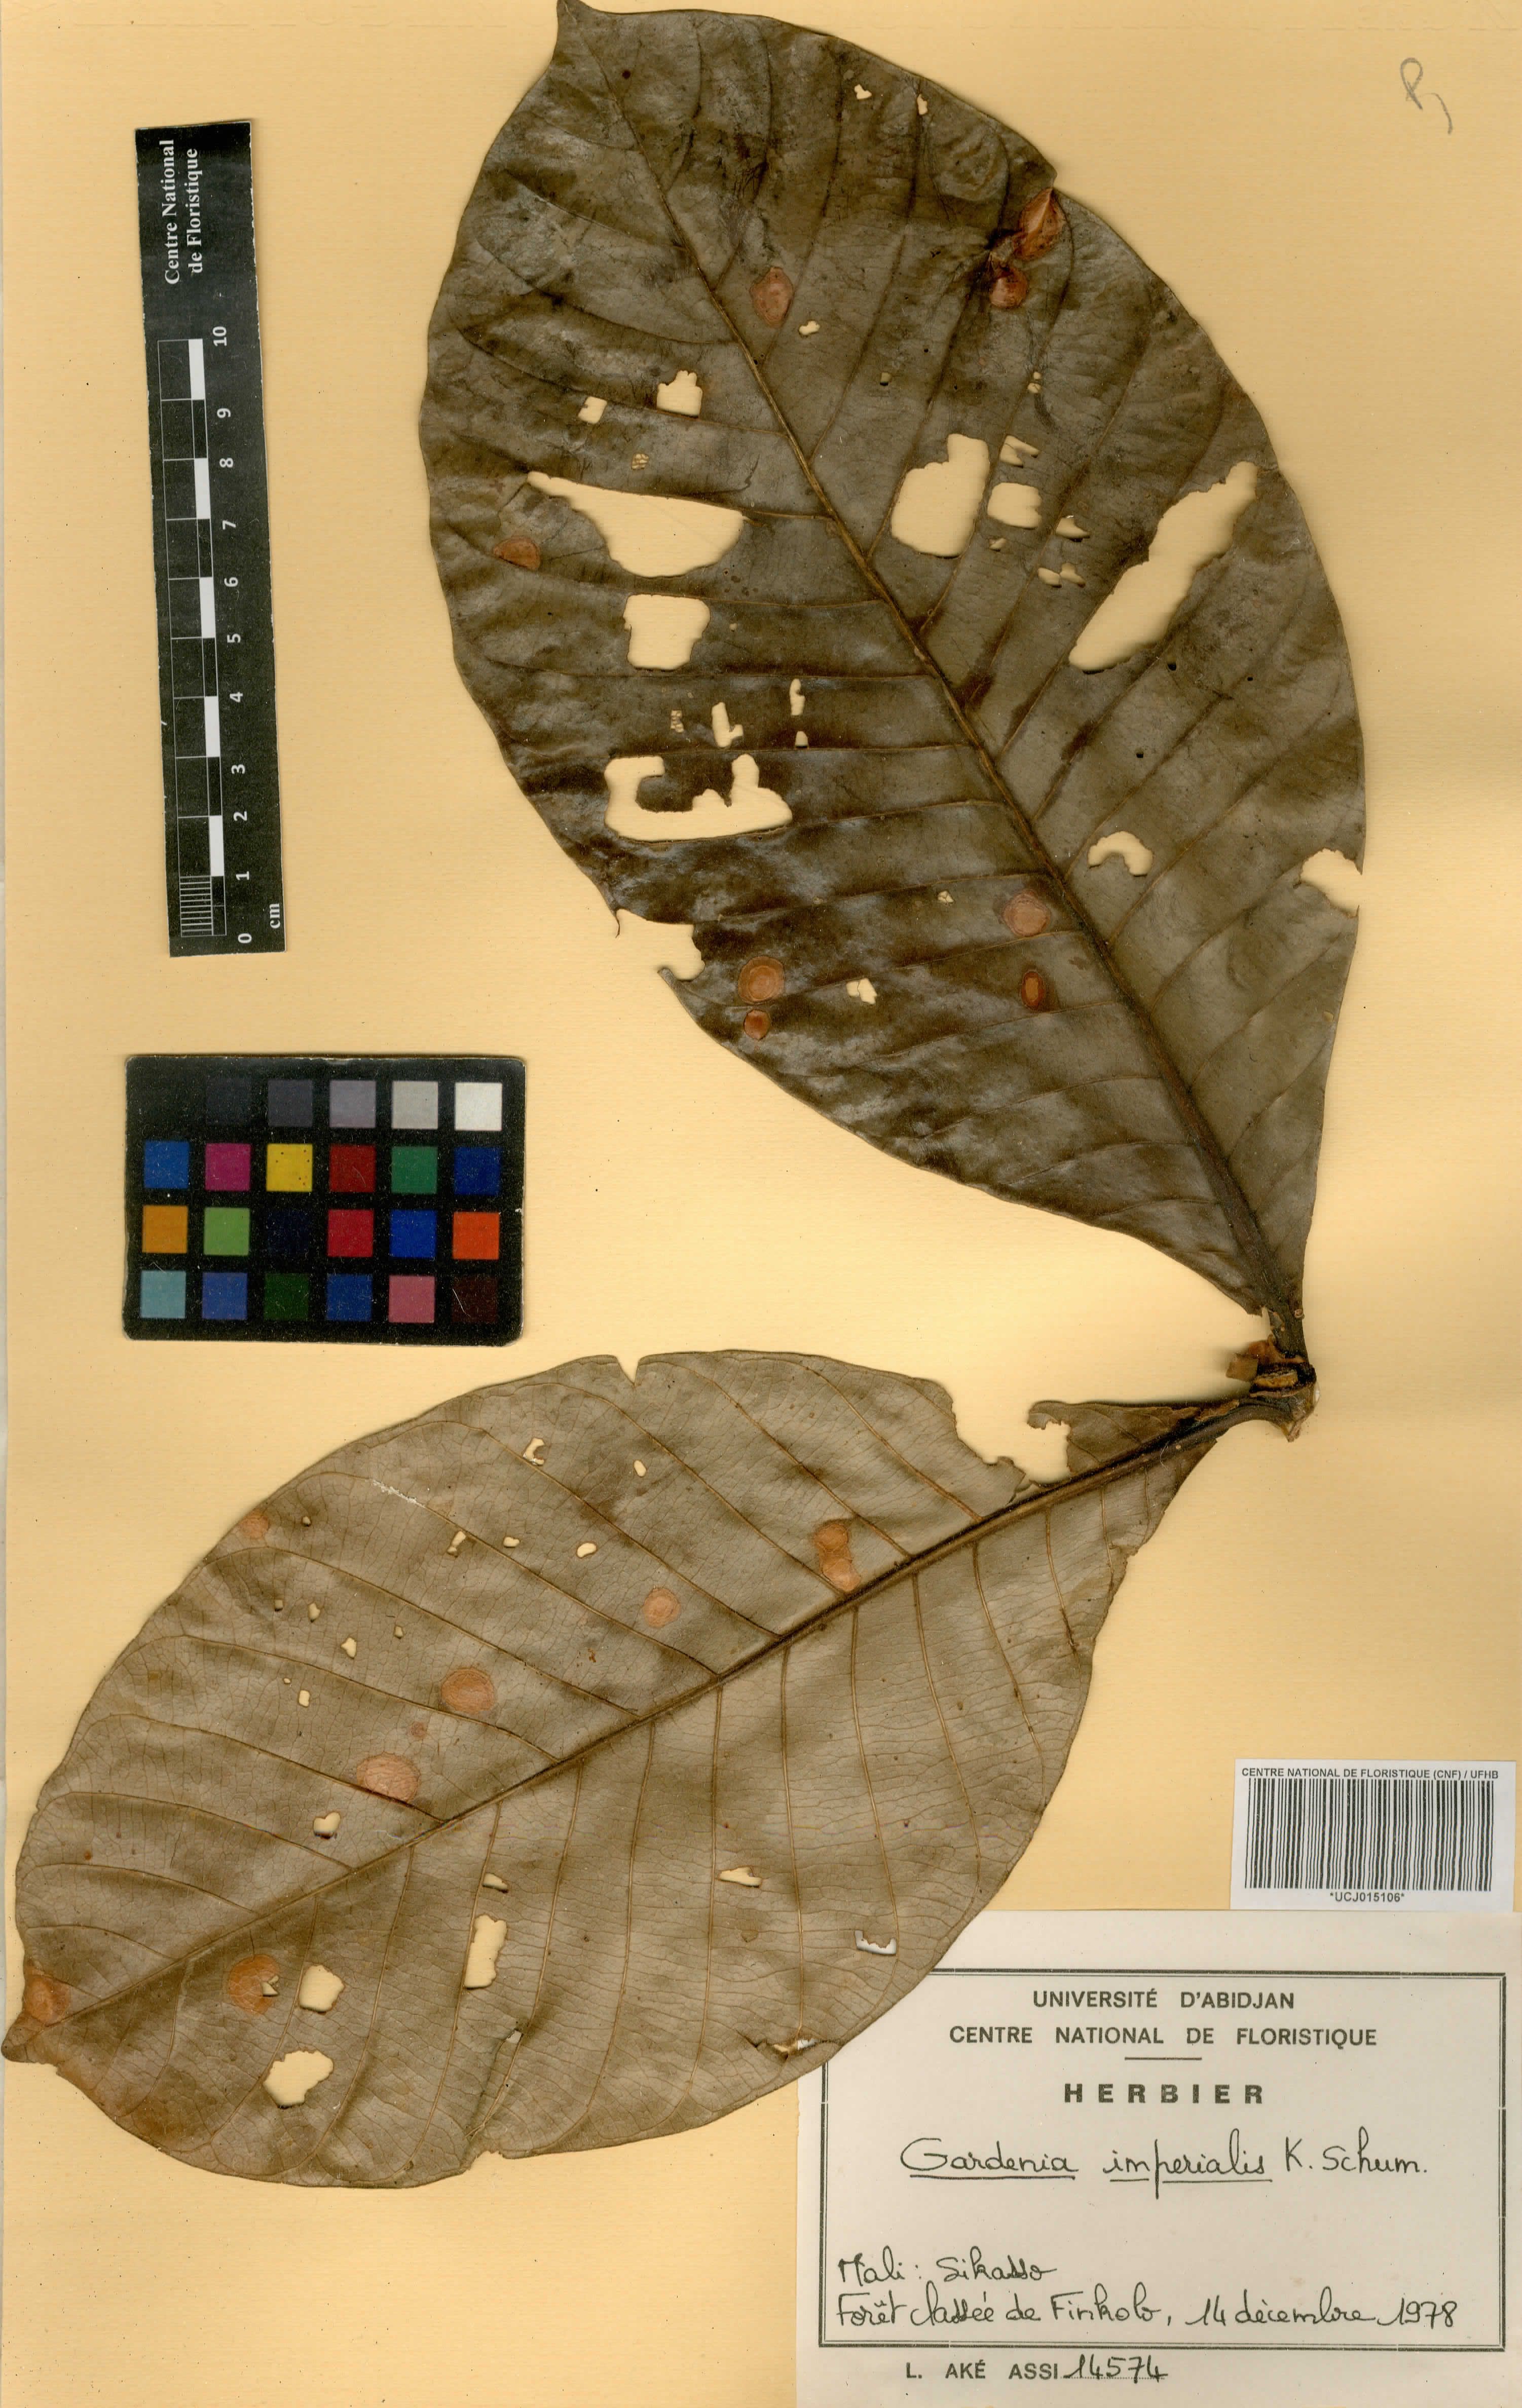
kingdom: Plantae
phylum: Tracheophyta
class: Magnoliopsida
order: Gentianales
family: Rubiaceae
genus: Gardenia
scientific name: Gardenia imperialis
